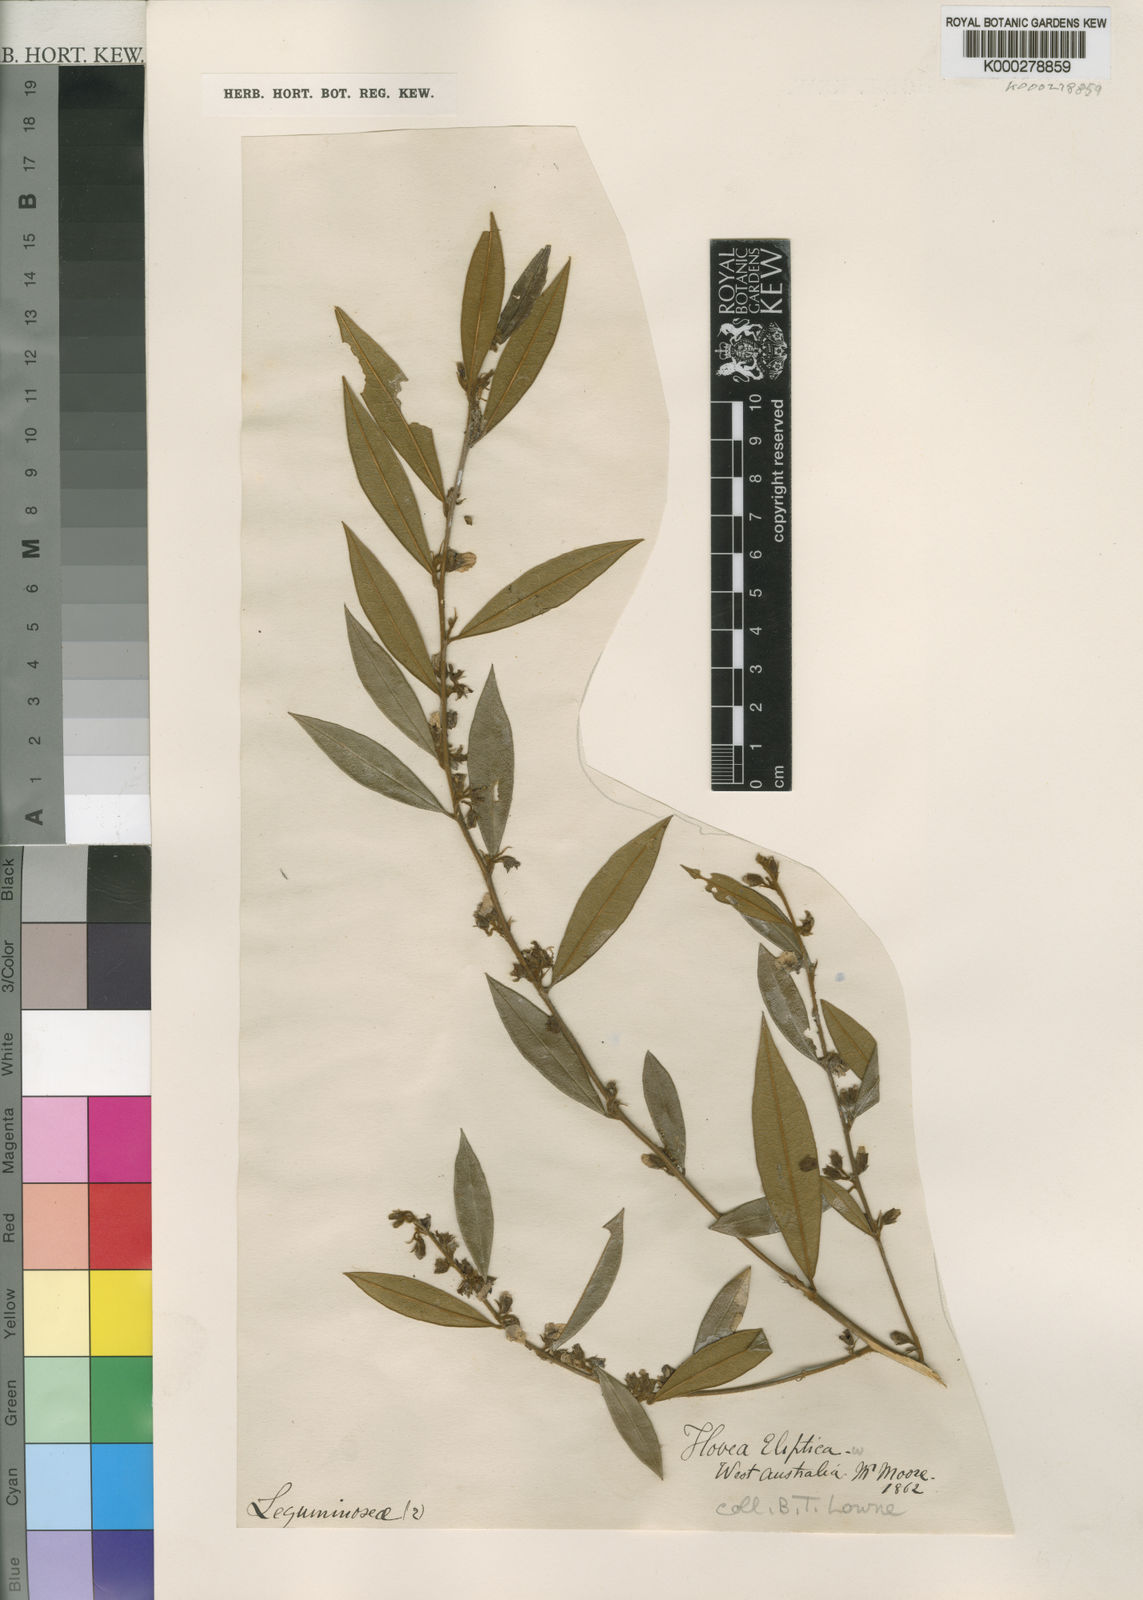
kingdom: Plantae
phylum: Tracheophyta
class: Magnoliopsida
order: Fabales
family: Fabaceae
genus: Hovea
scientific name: Hovea elliptica
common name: Tree hovea
